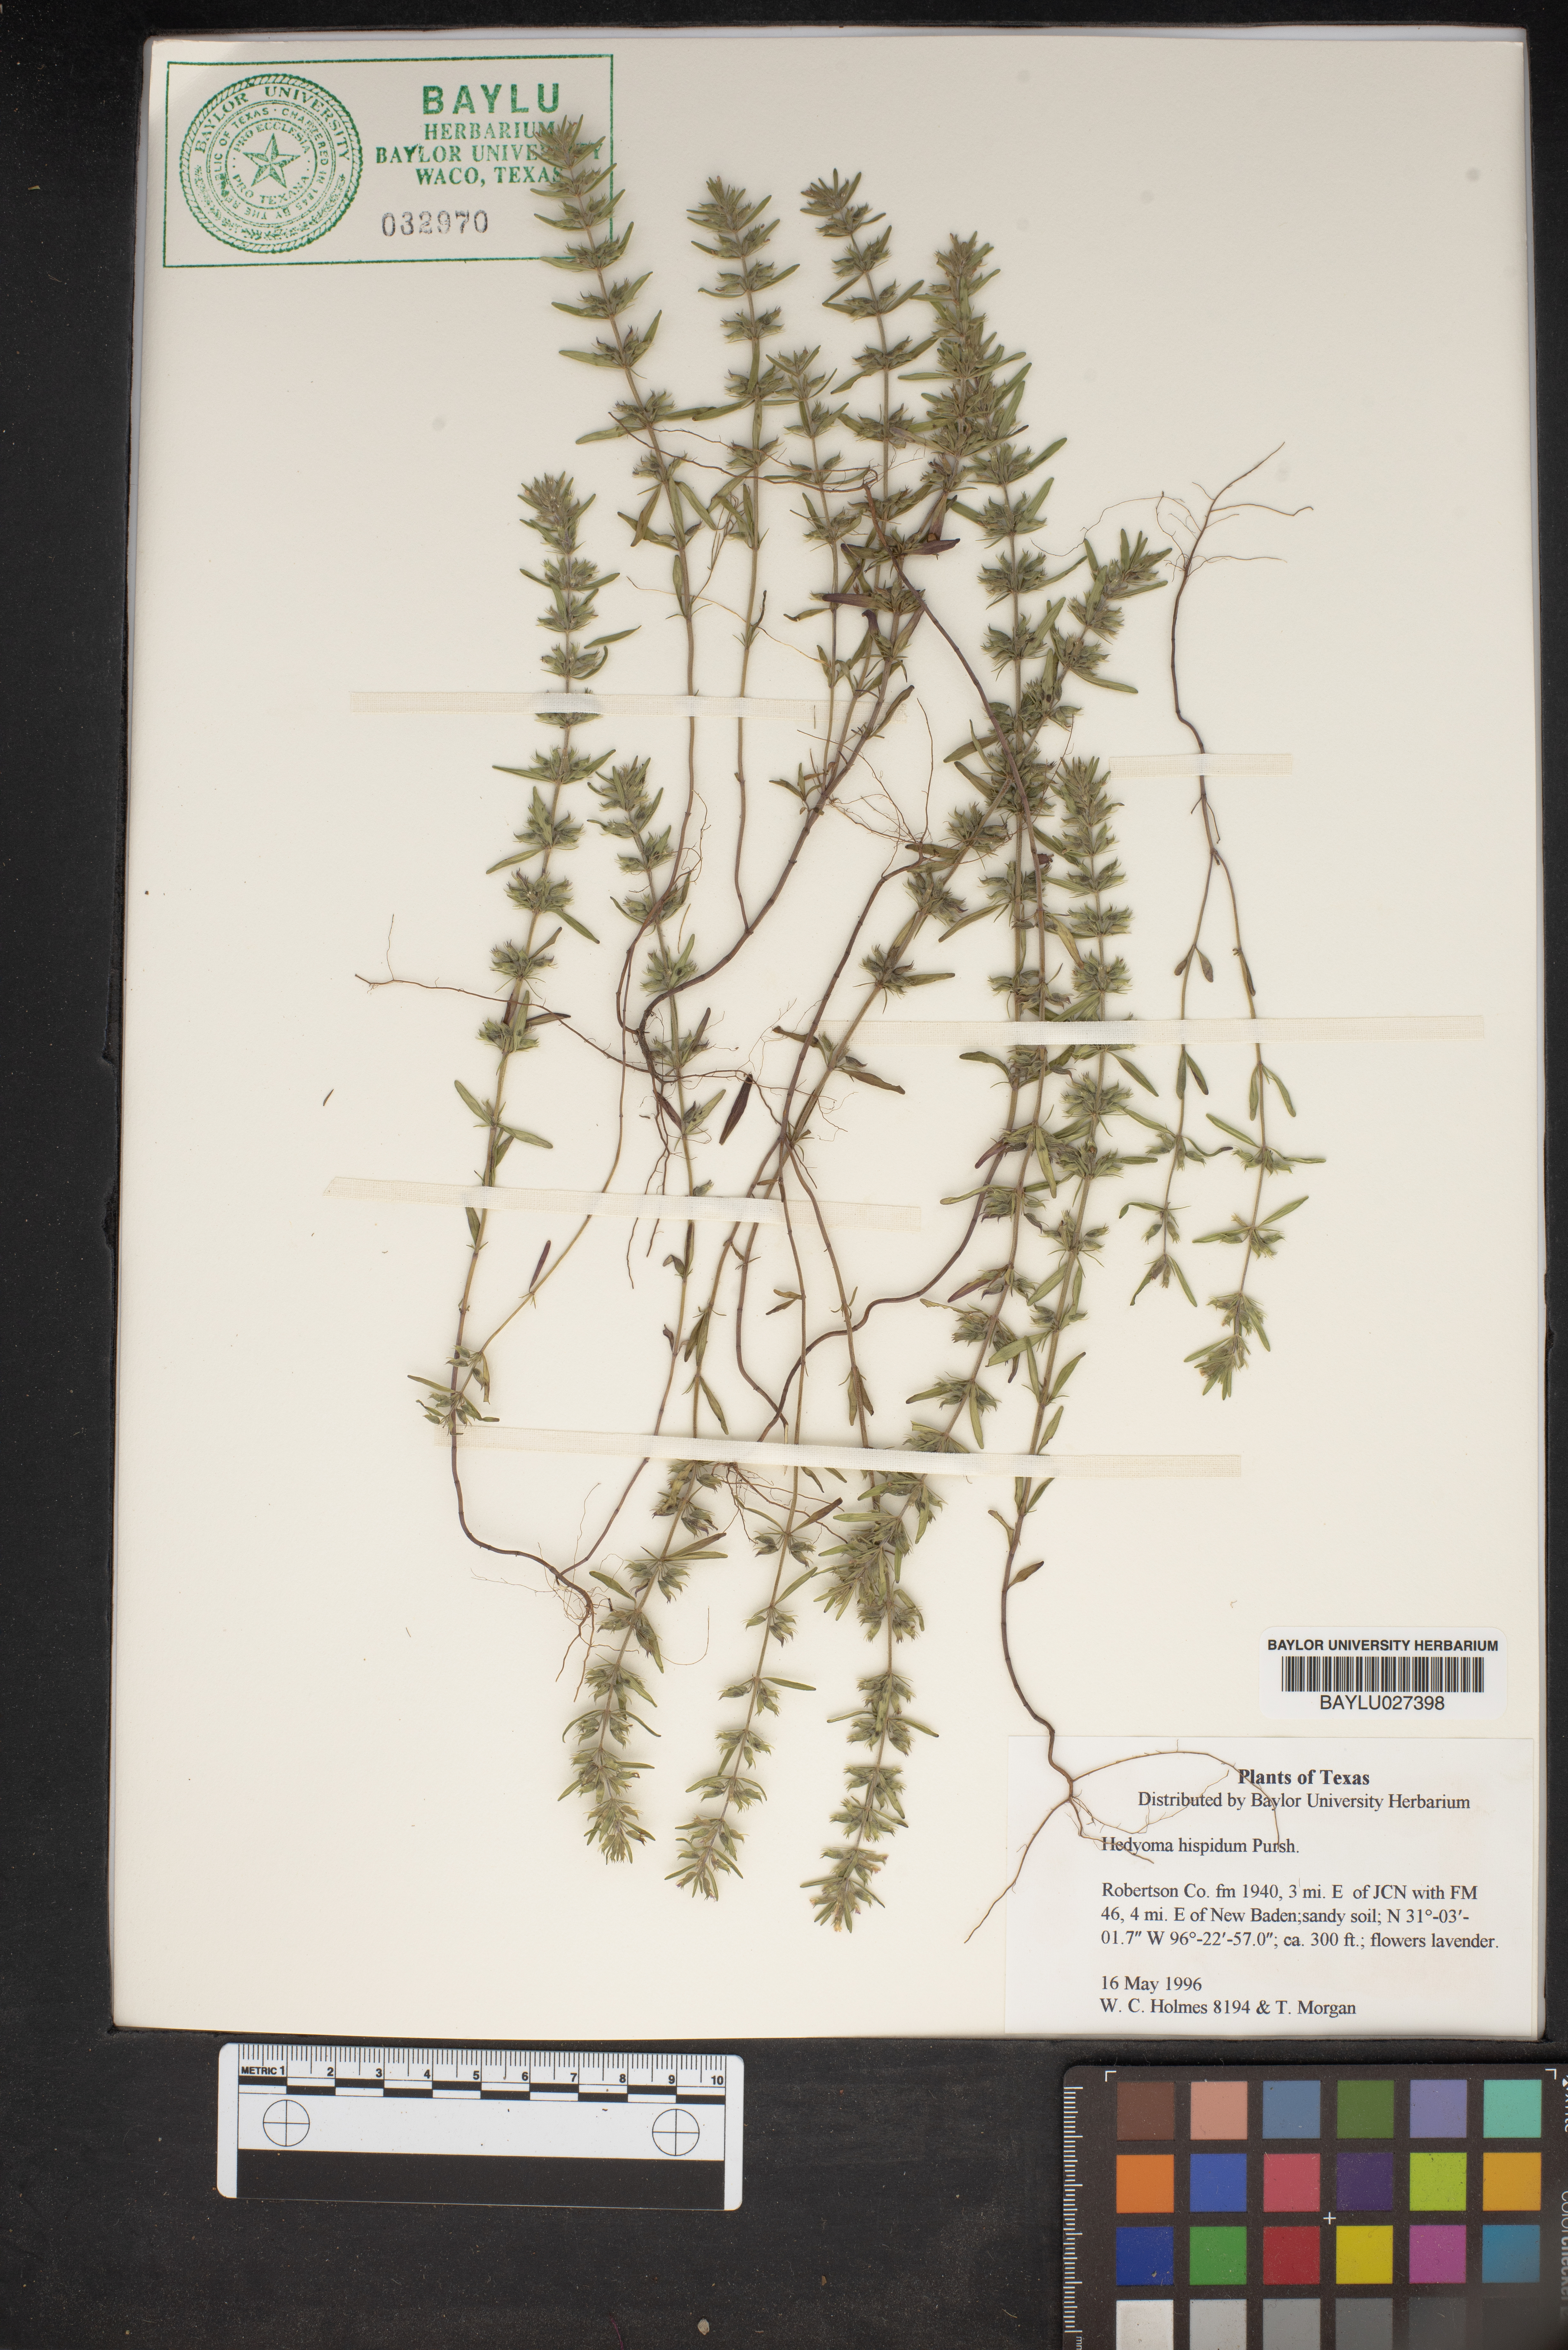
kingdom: Plantae
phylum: Tracheophyta
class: Magnoliopsida
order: Lamiales
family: Lamiaceae
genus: Hedeoma
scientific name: Hedeoma hispida
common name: Mock pennyroyal
